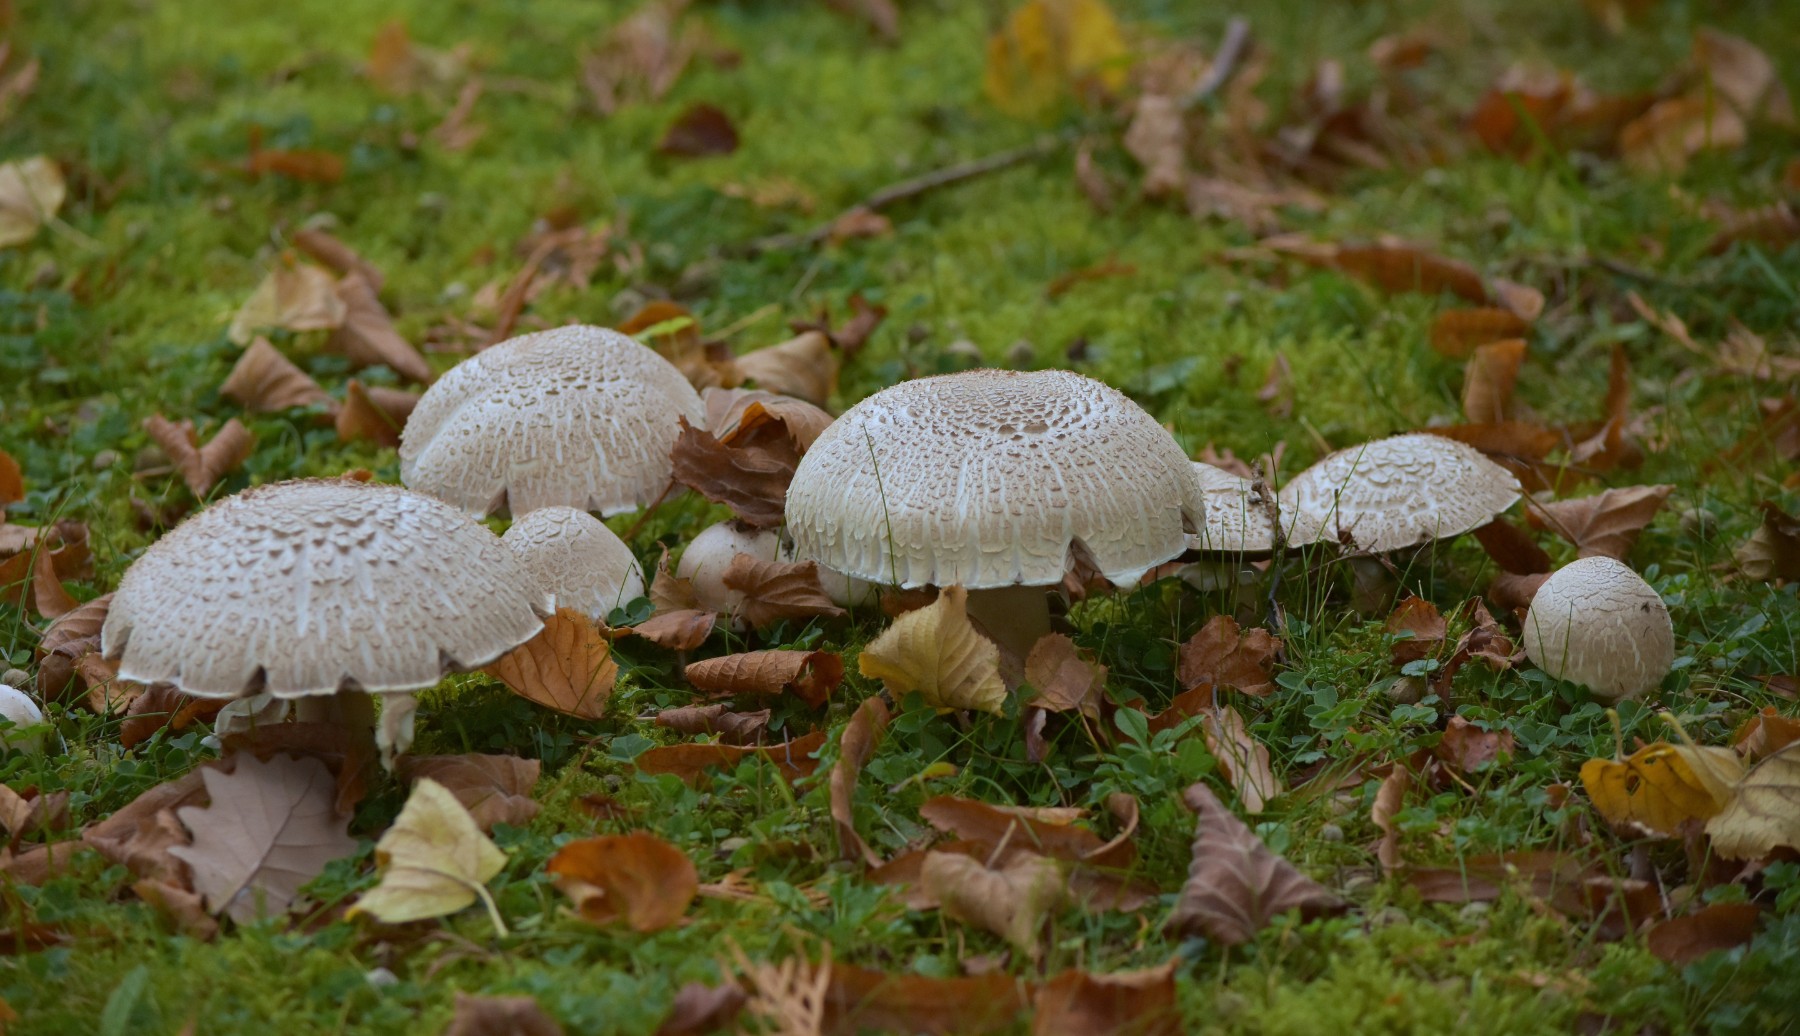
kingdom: Fungi
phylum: Basidiomycota
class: Agaricomycetes
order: Agaricales
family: Agaricaceae
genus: Agaricus
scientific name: Agaricus
